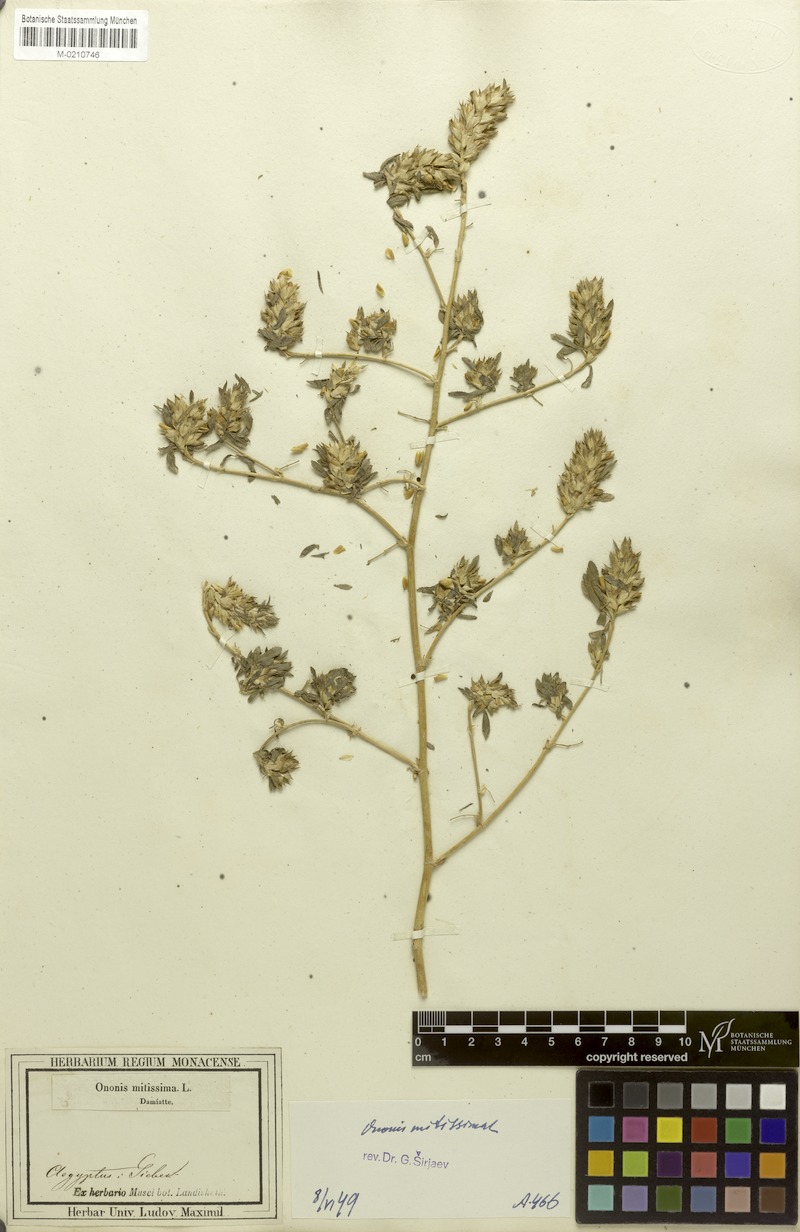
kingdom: Plantae
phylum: Tracheophyta
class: Magnoliopsida
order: Fabales
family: Fabaceae
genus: Ononis
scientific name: Ononis mitissima
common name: Mediterranean restharrow
